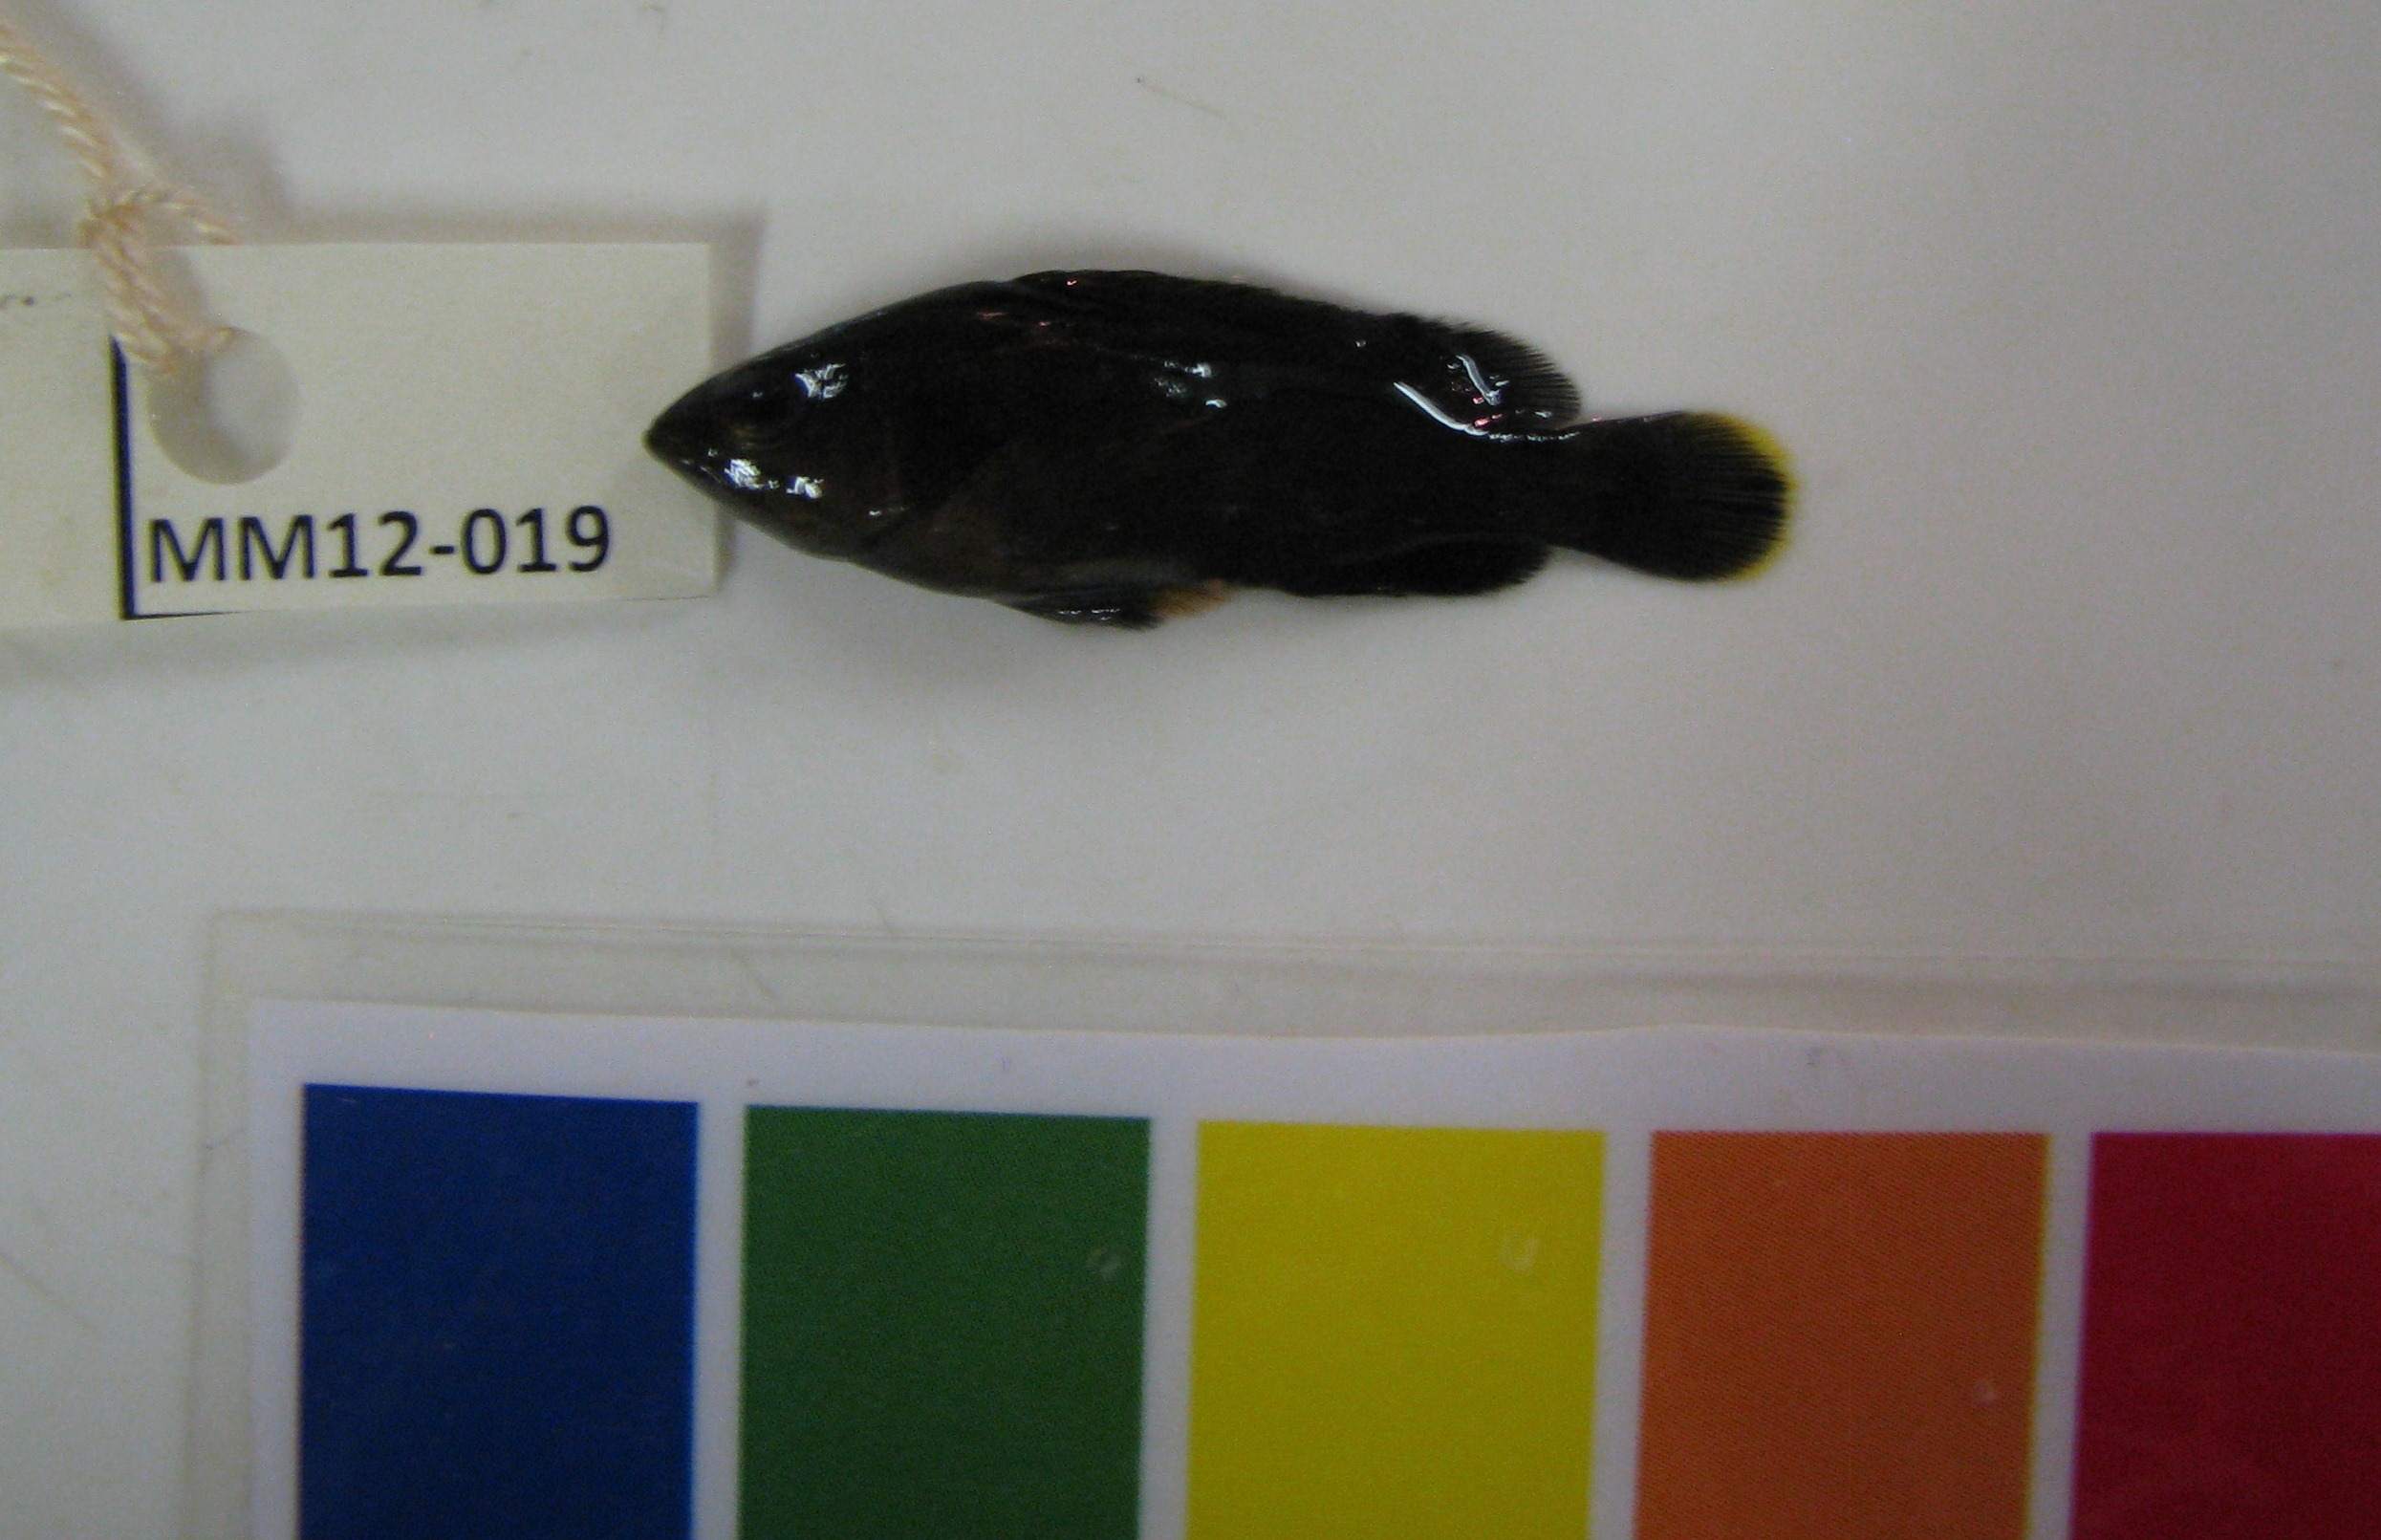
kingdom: Animalia
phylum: Chordata
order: Perciformes
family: Serranidae
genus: Epinephelus
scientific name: Epinephelus marginatus
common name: Dusky grouper
